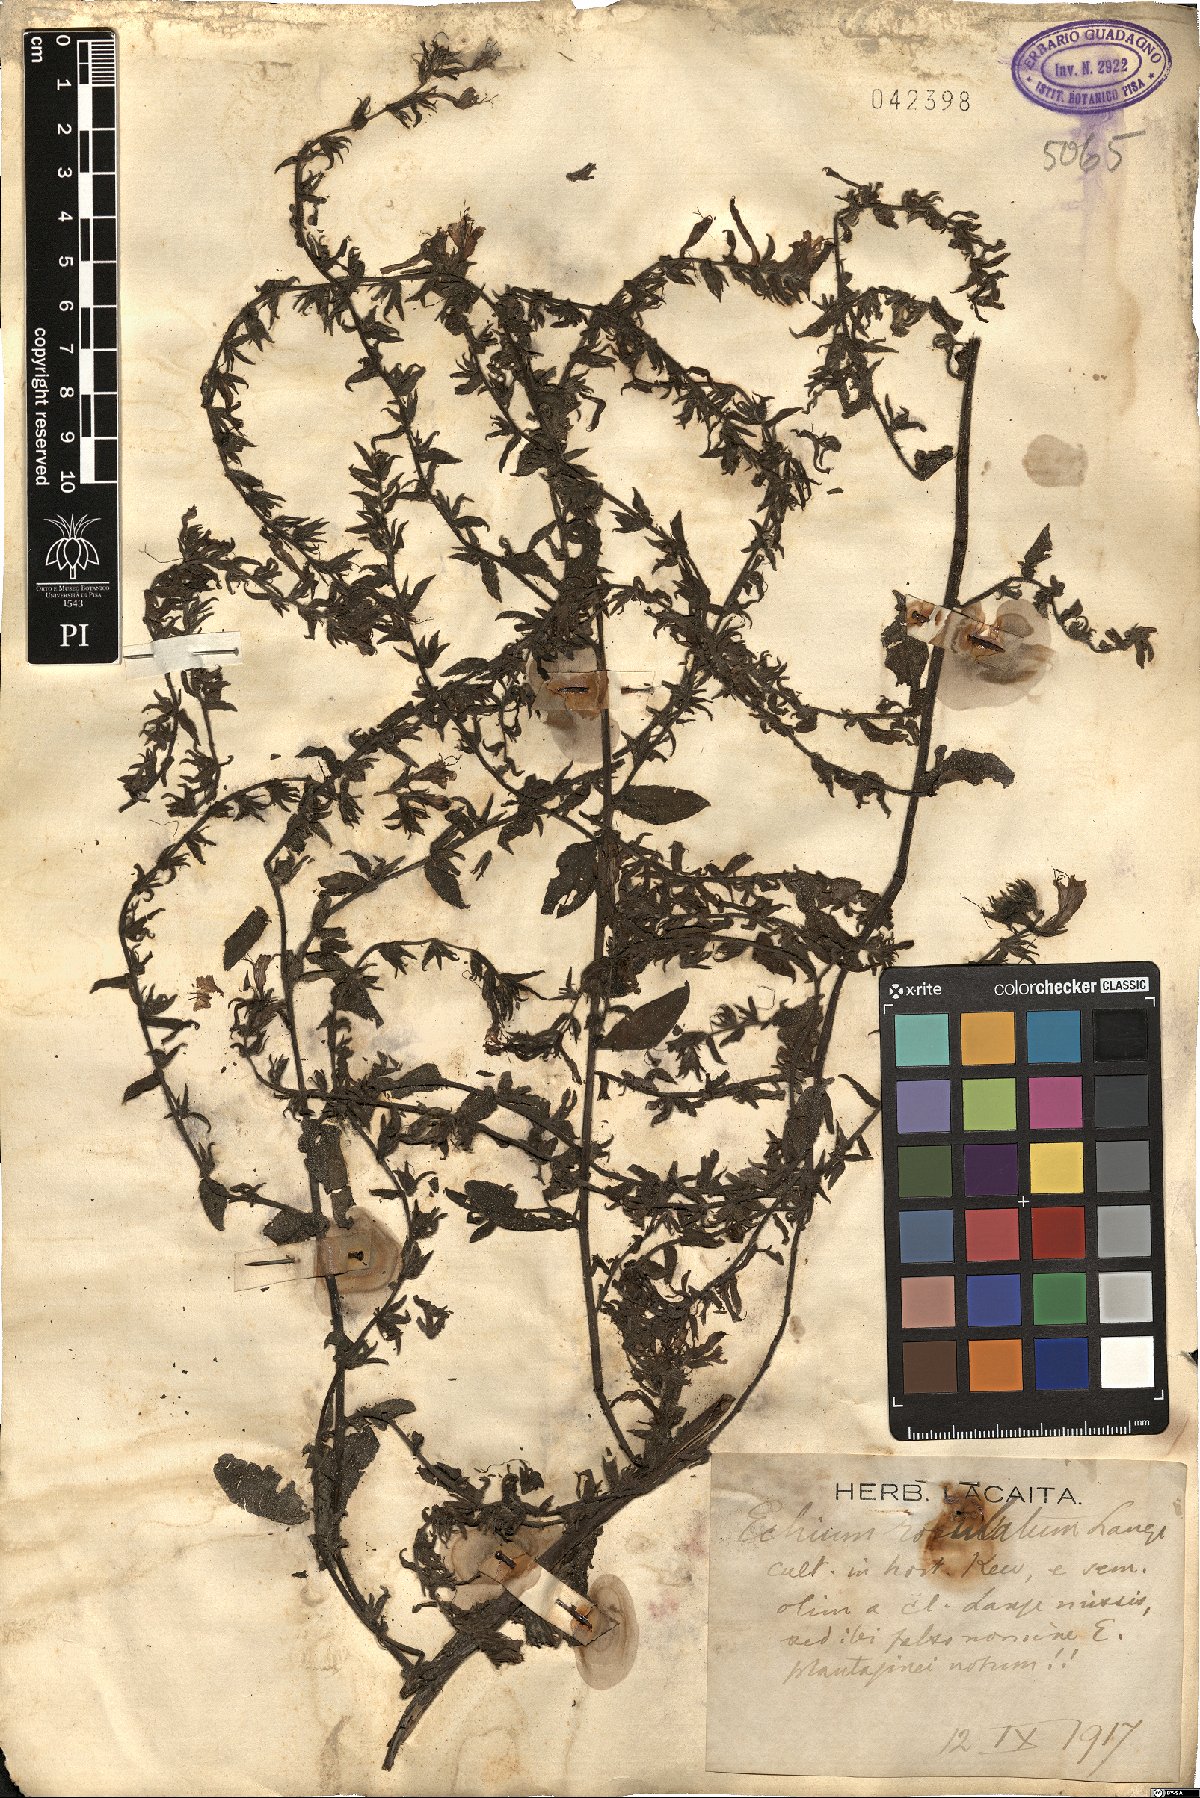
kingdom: Plantae
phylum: Tracheophyta
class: Magnoliopsida
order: Boraginales
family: Boraginaceae
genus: Echium
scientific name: Echium rosulatum
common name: Lax viper's-bugloss
